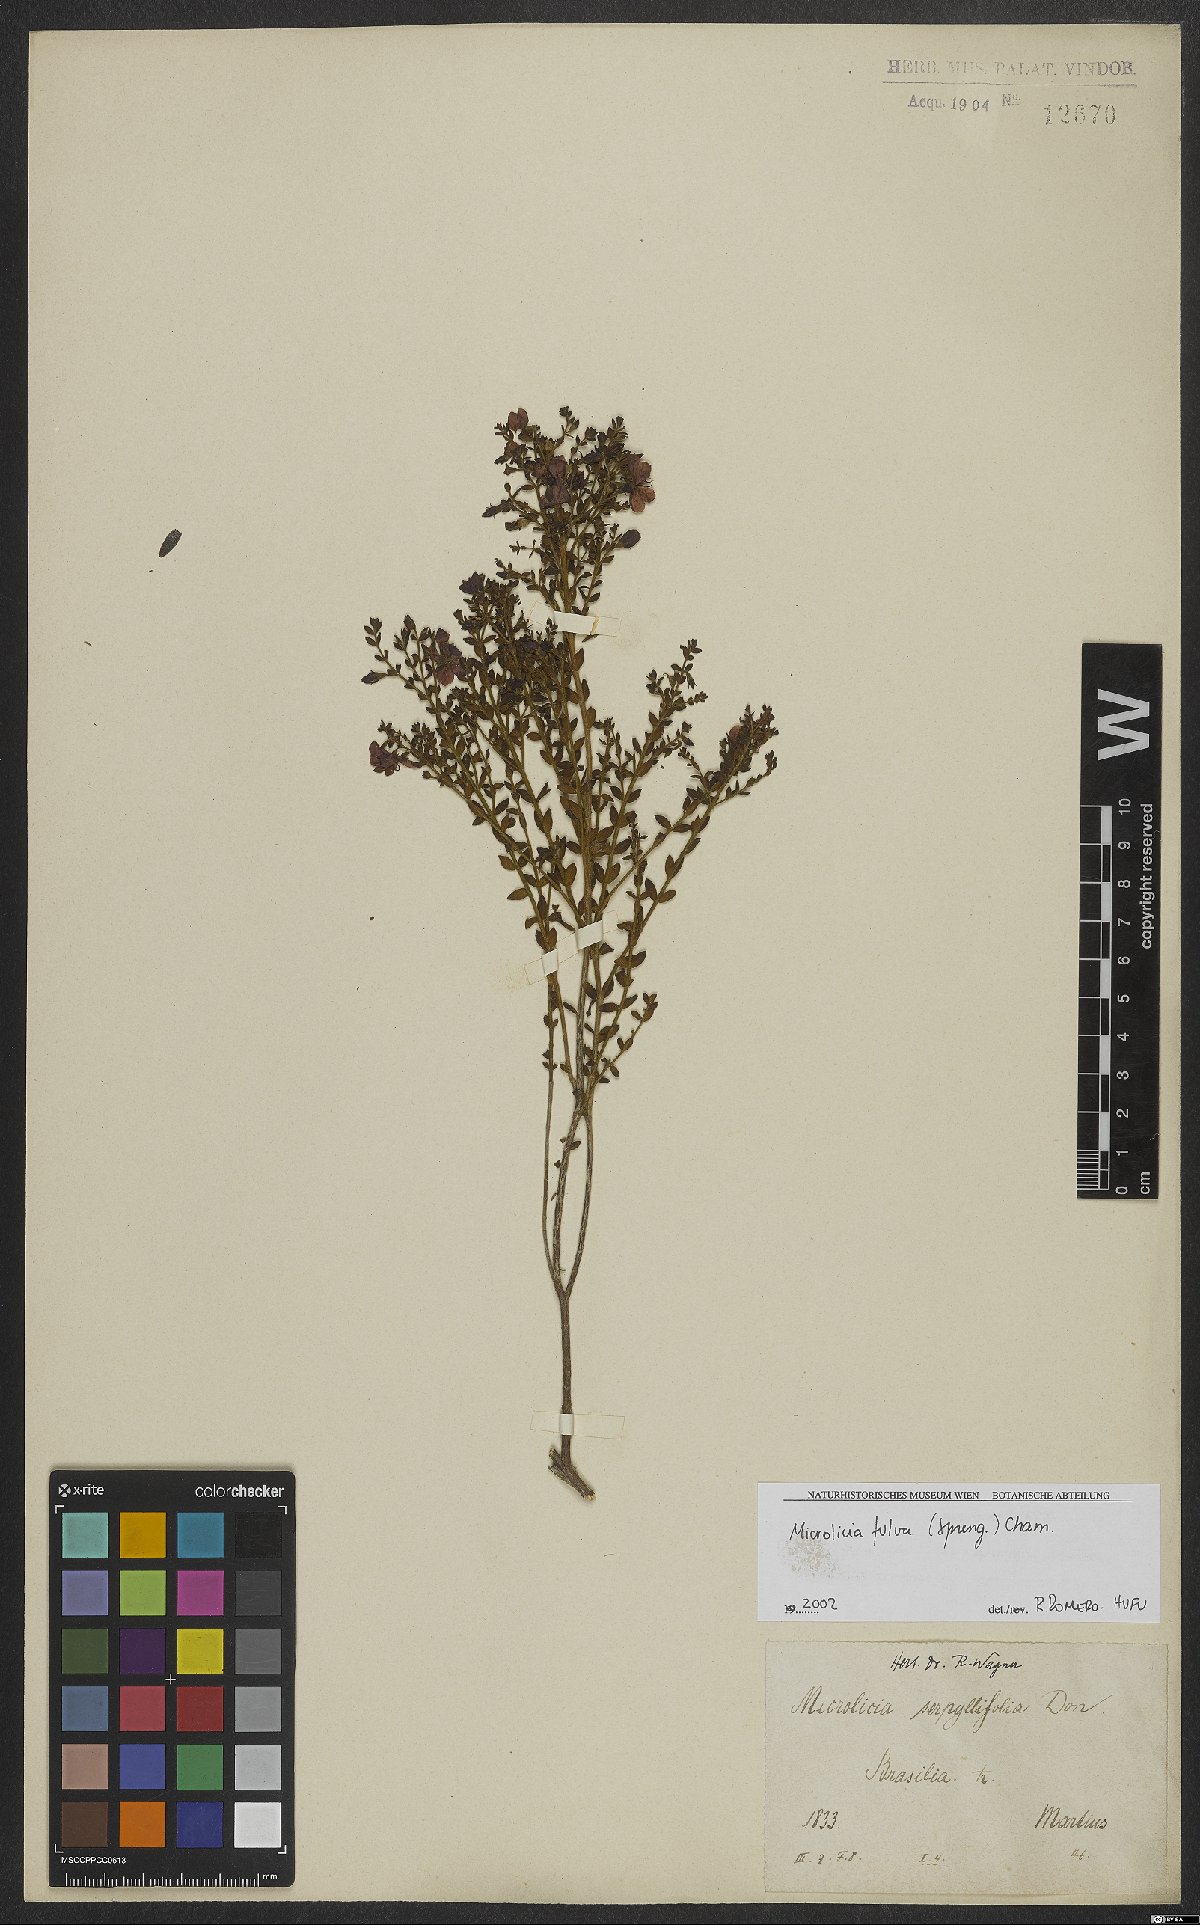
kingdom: Plantae
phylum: Tracheophyta
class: Magnoliopsida
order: Myrtales
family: Melastomataceae
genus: Microlicia
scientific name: Microlicia fulva
